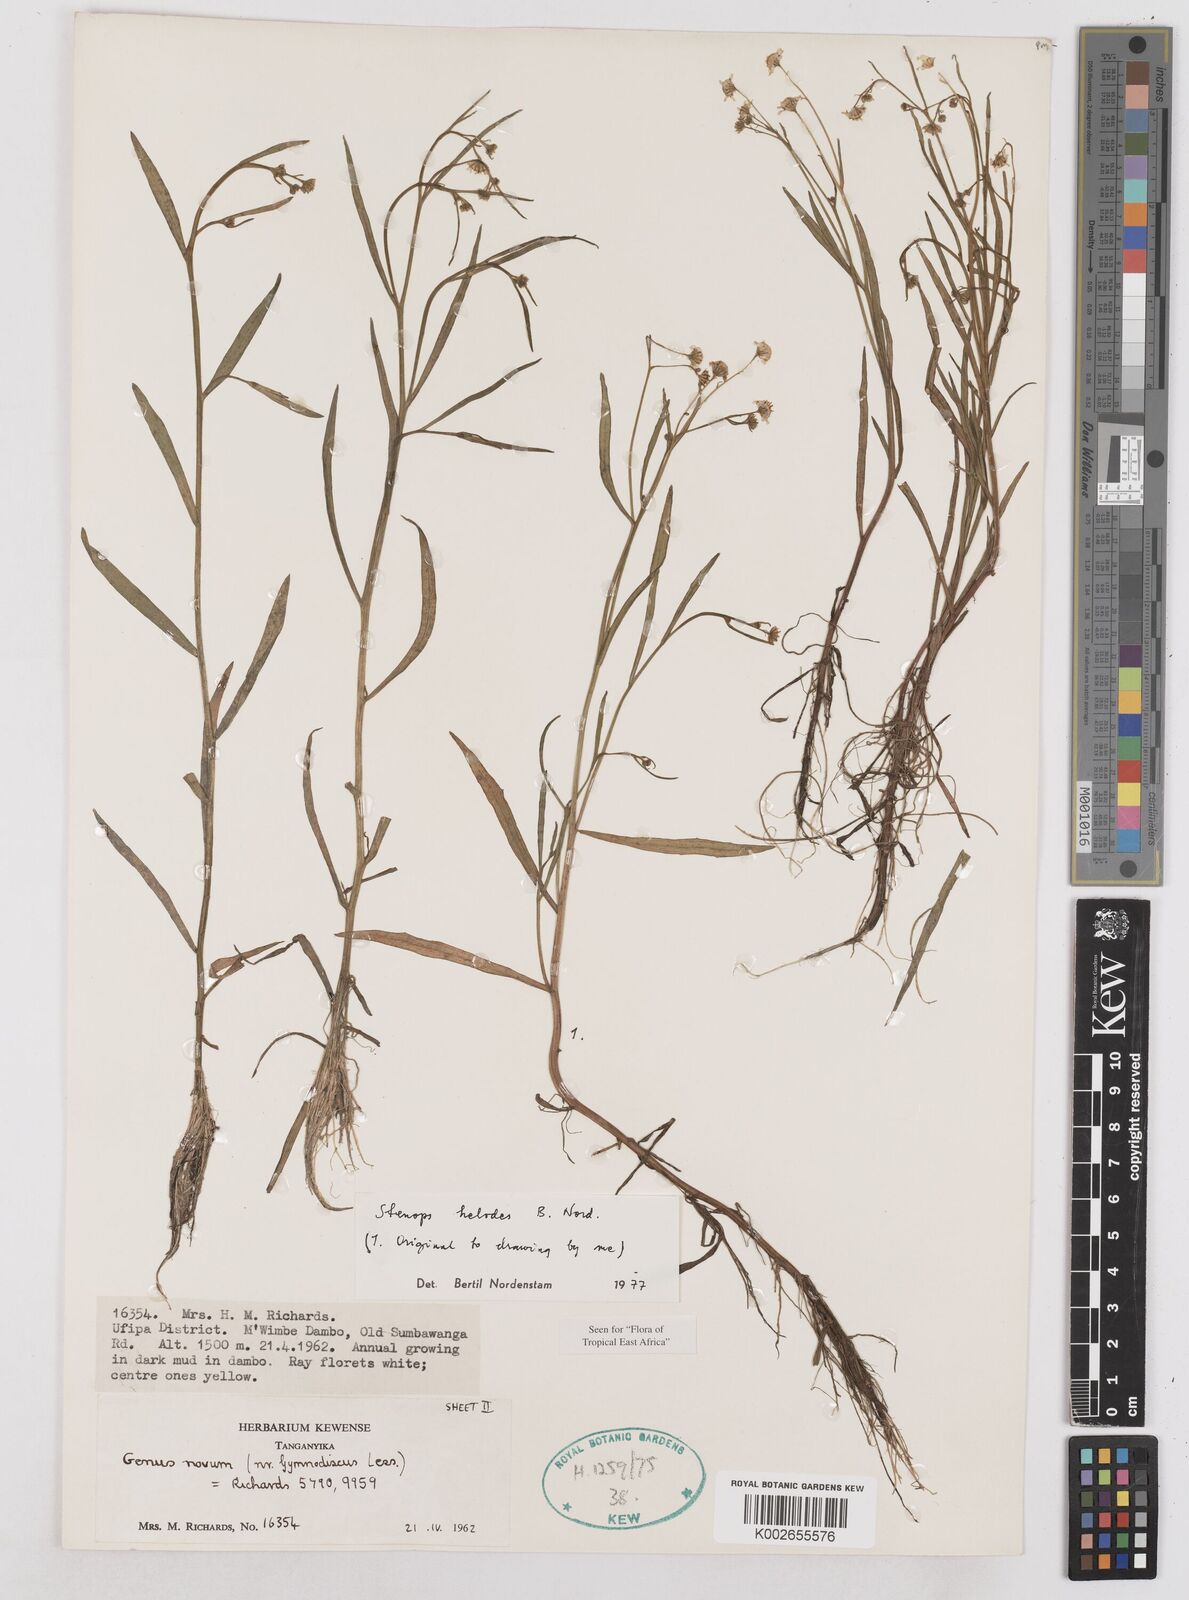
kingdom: Plantae
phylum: Tracheophyta
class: Magnoliopsida
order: Asterales
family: Asteraceae
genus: Stenops
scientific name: Stenops helodes
